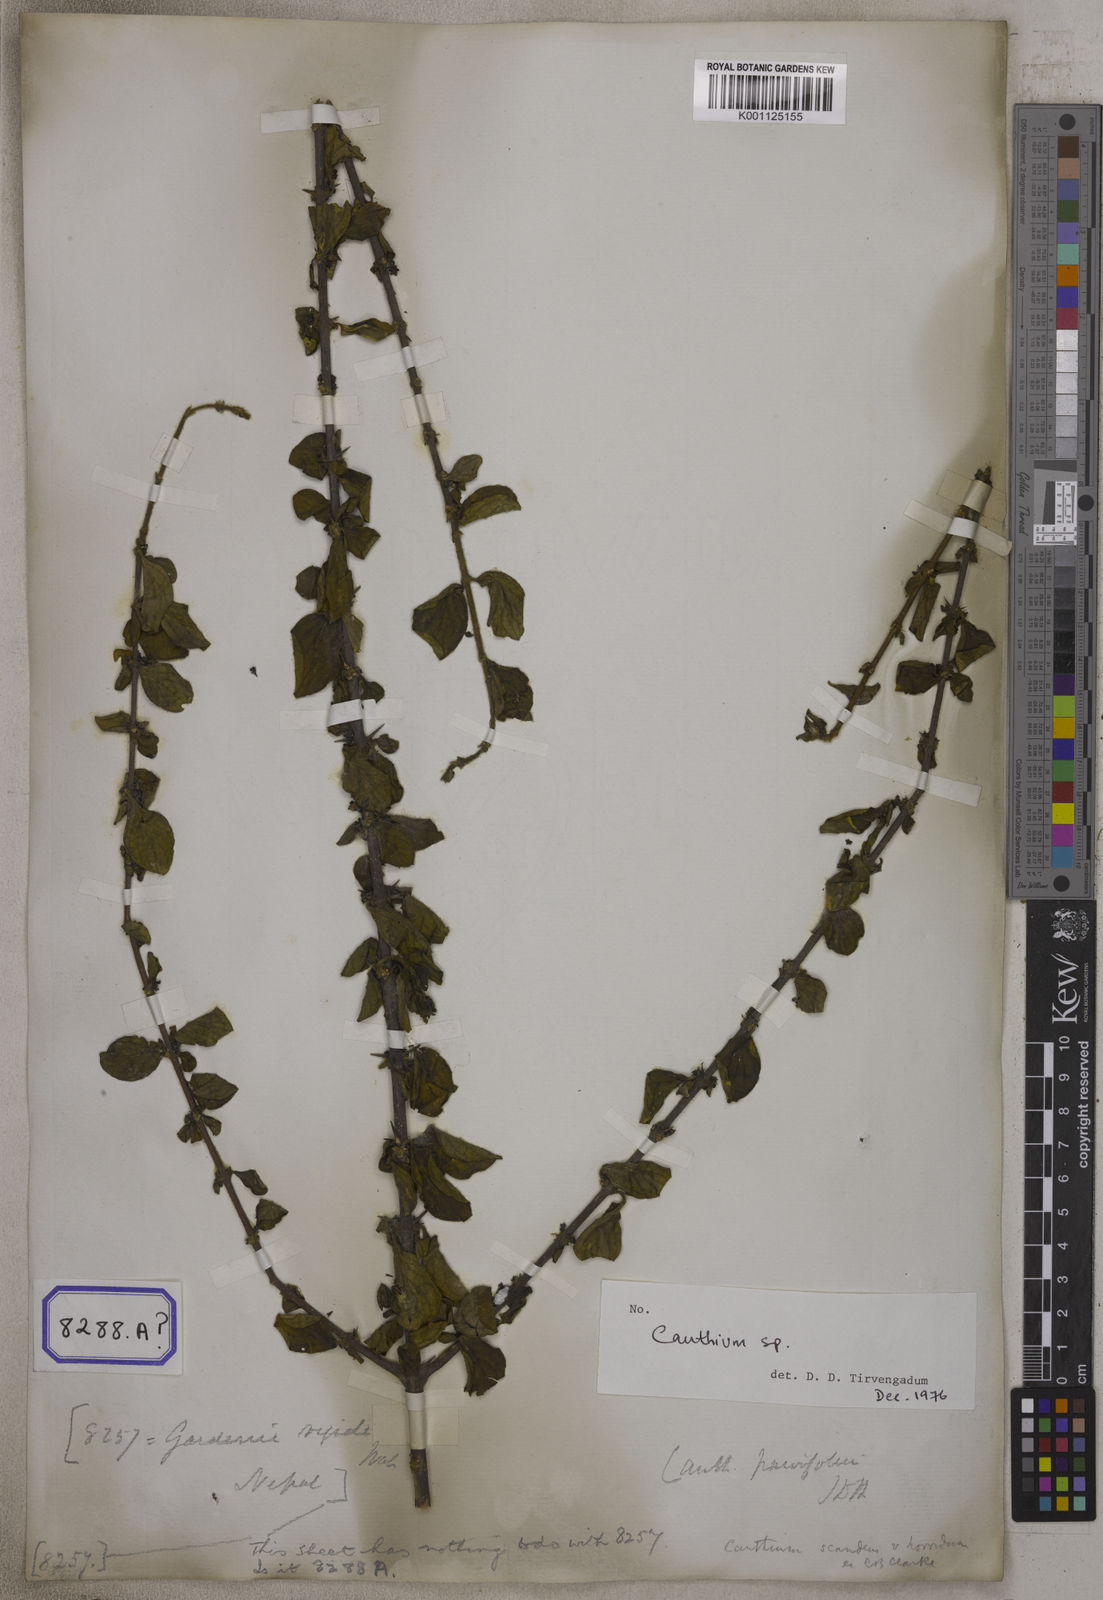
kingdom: Plantae
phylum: Tracheophyta
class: Magnoliopsida
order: Gentianales
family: Rubiaceae
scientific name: Rubiaceae
